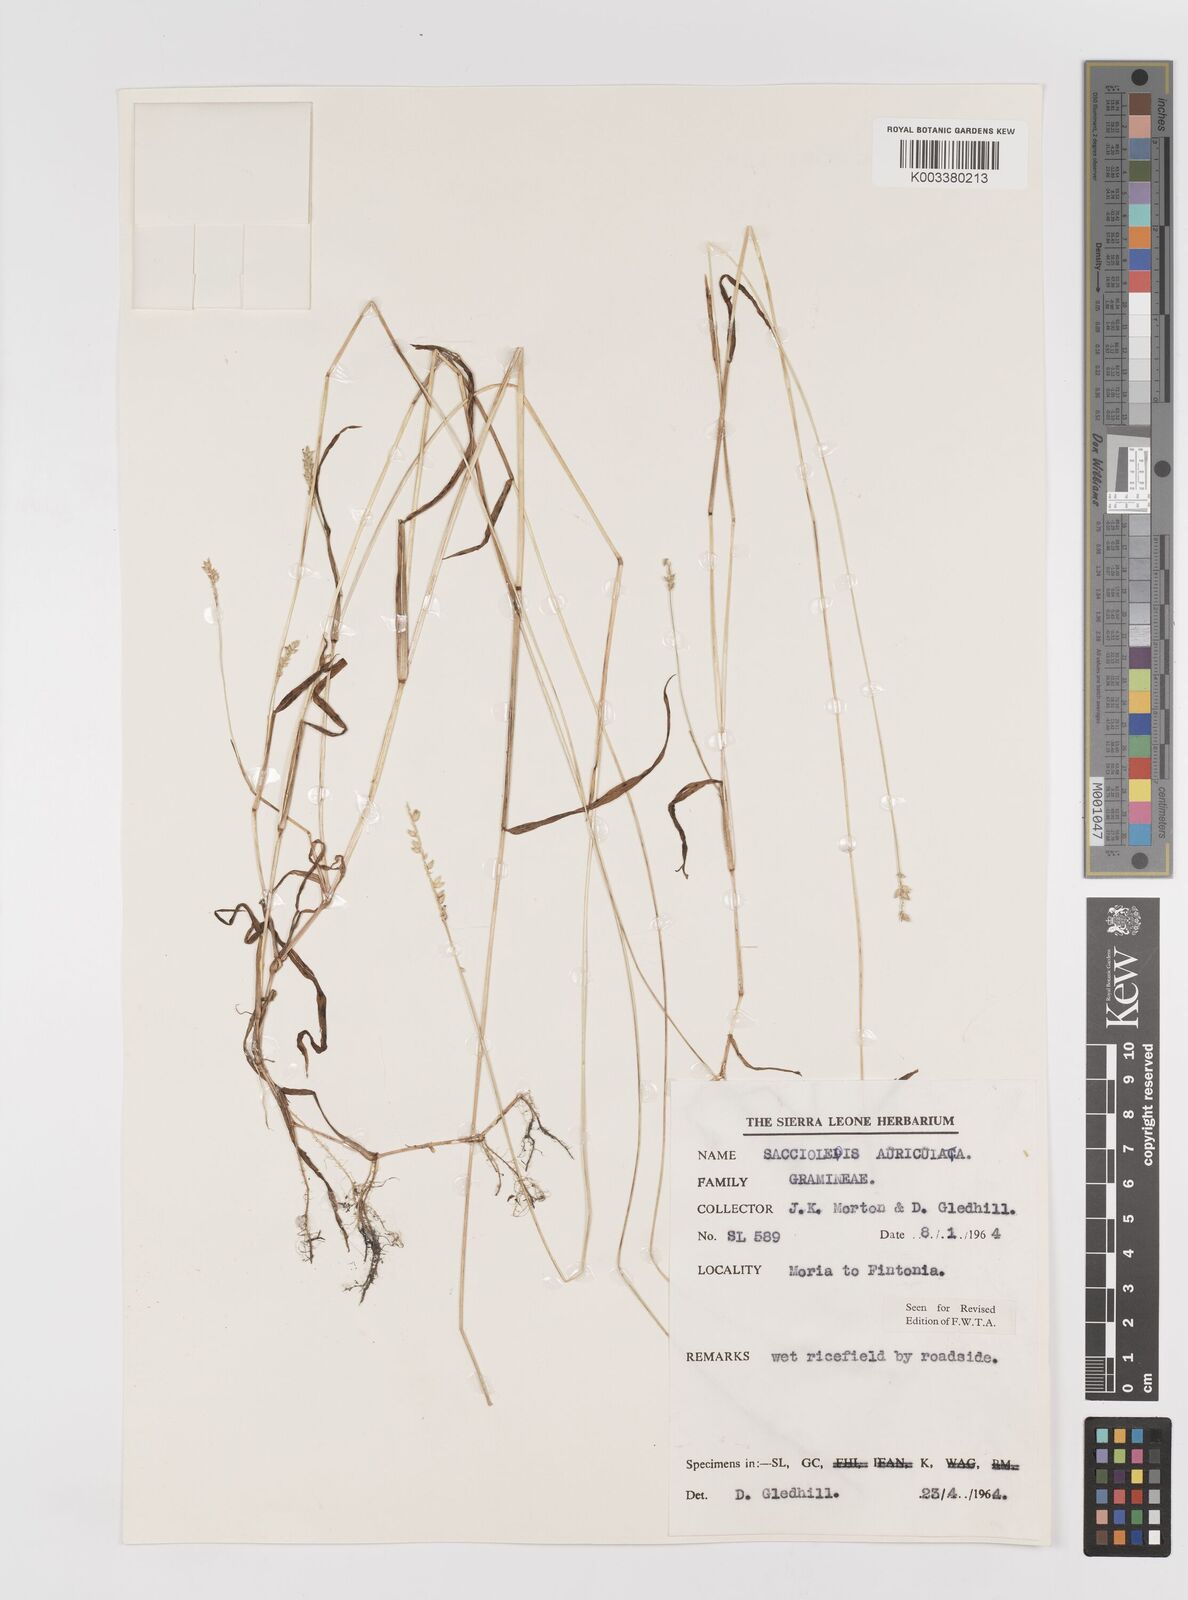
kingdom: Plantae
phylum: Tracheophyta
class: Liliopsida
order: Poales
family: Poaceae
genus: Sacciolepis
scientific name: Sacciolepis indica
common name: Glenwoodgrass
